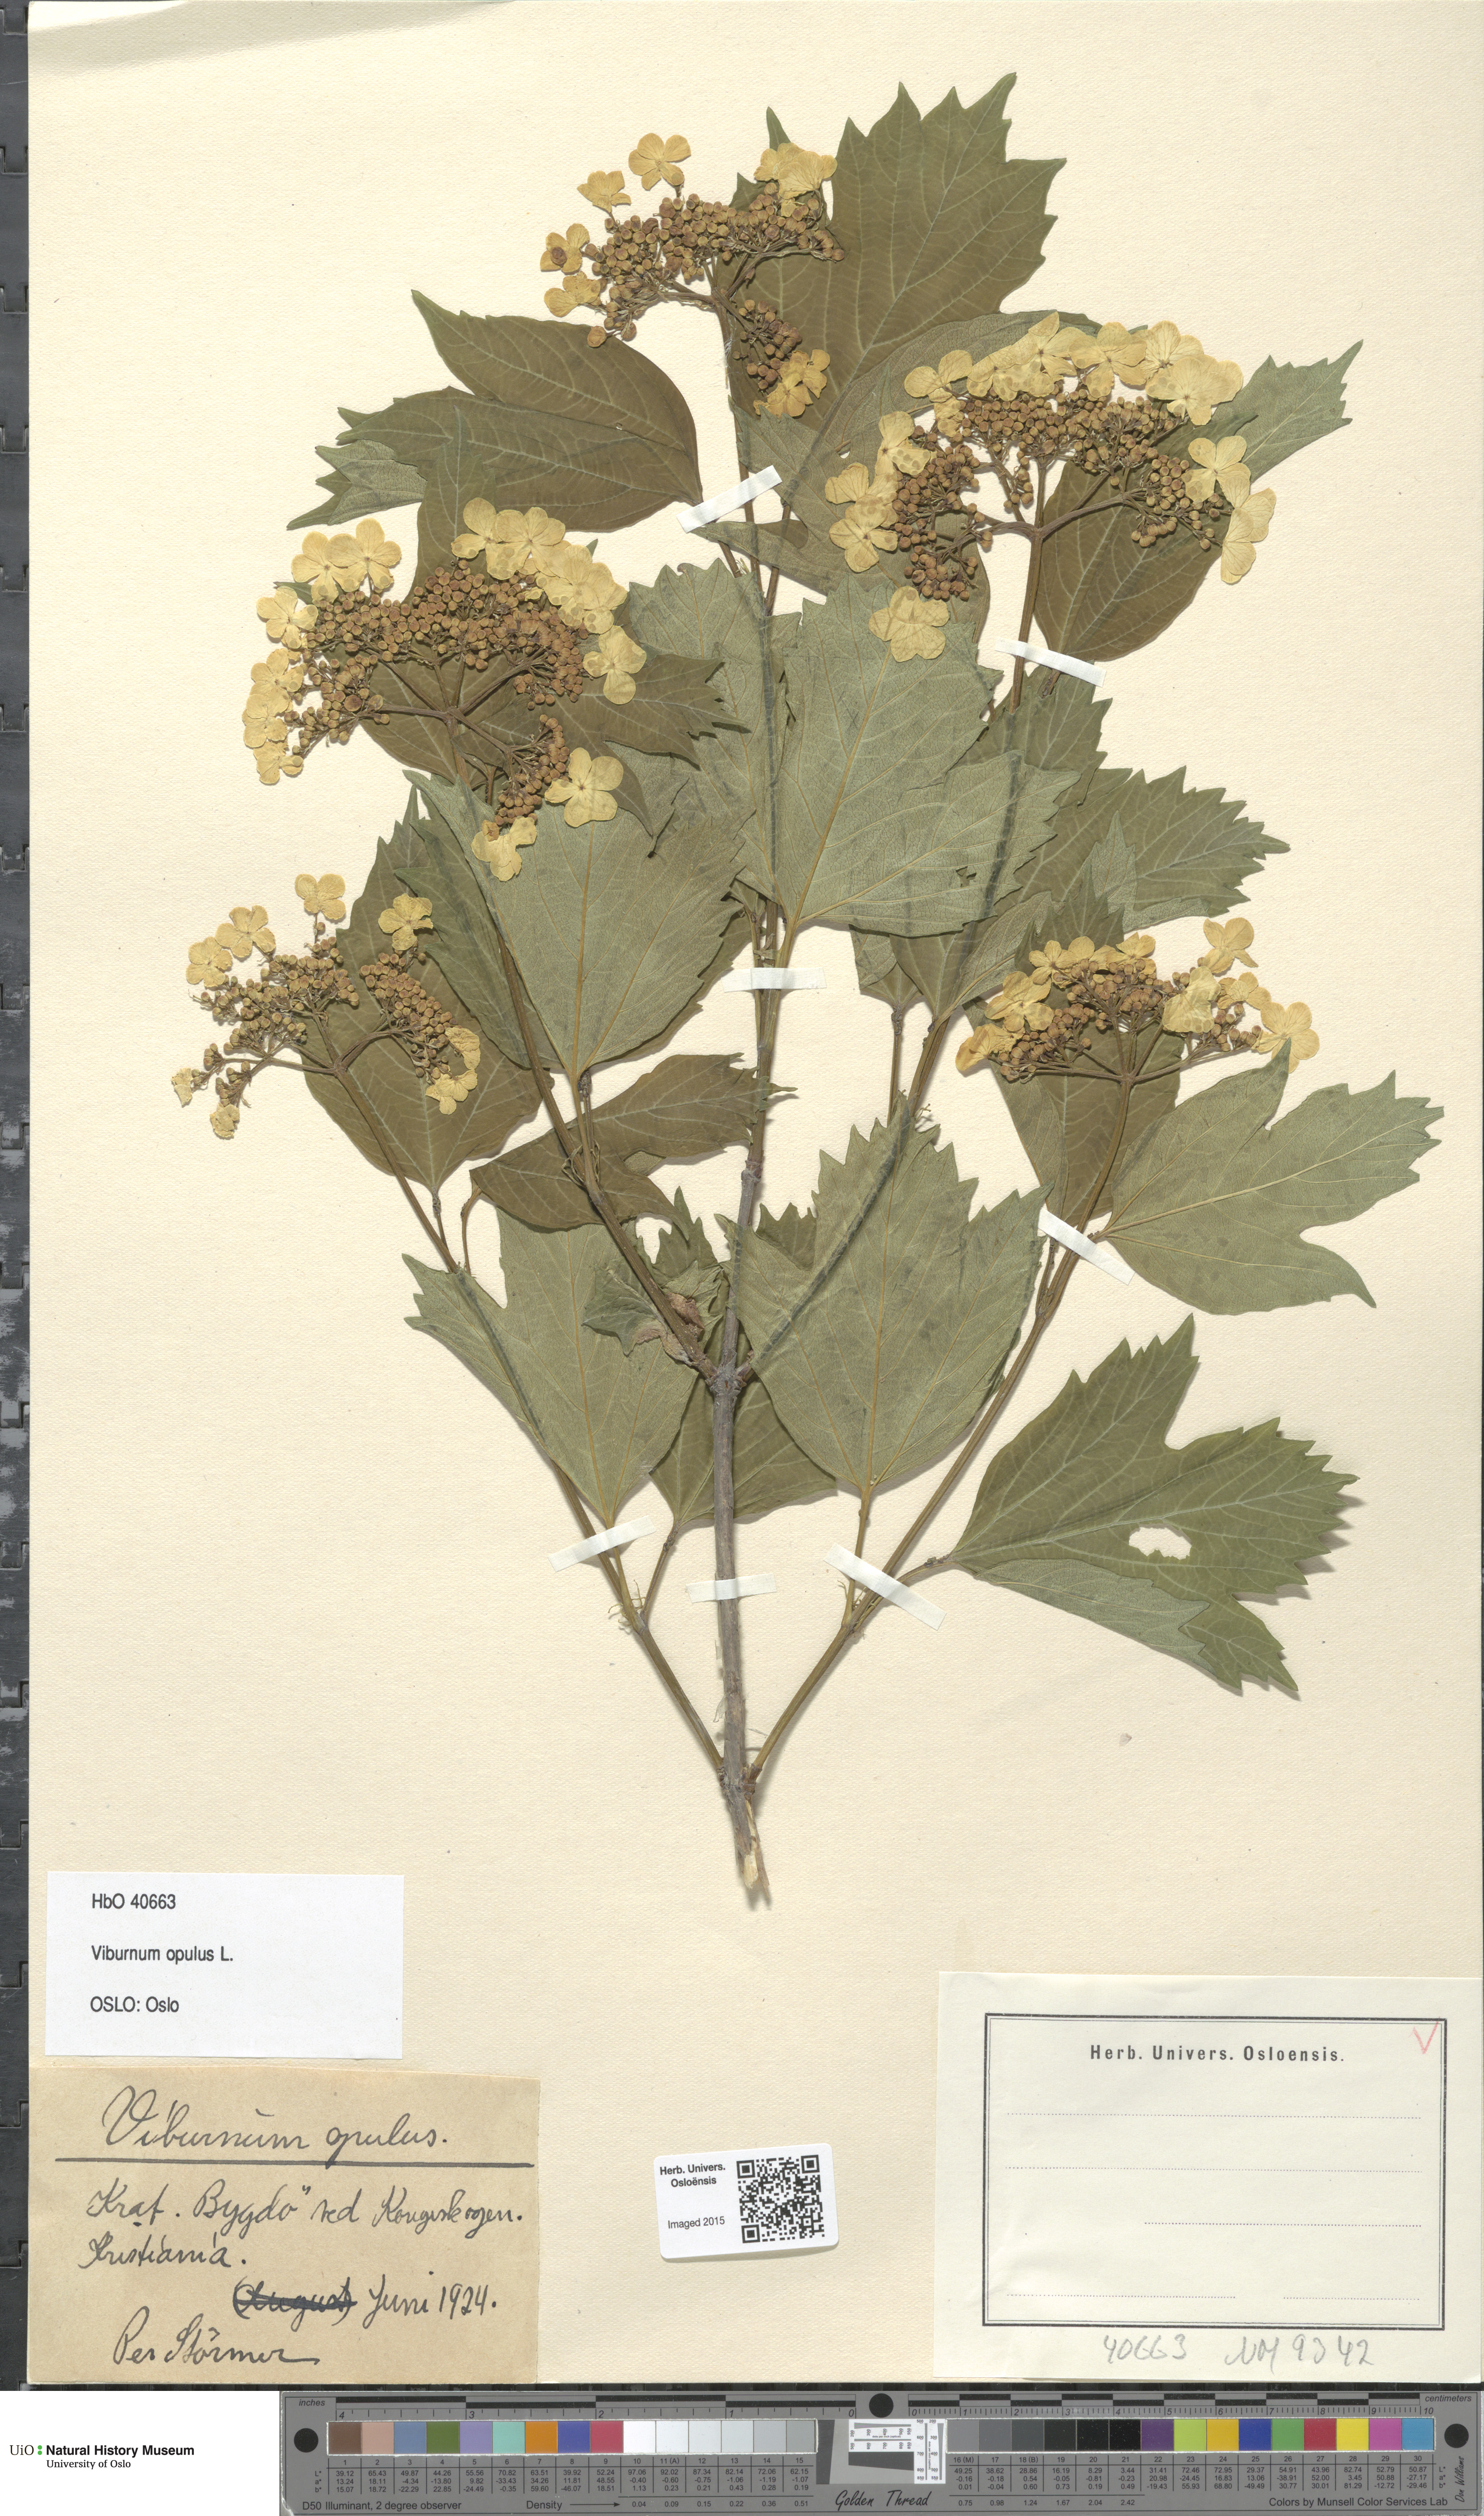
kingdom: Plantae
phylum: Tracheophyta
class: Magnoliopsida
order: Dipsacales
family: Viburnaceae
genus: Viburnum
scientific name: Viburnum opulus
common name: Guelder-rose
